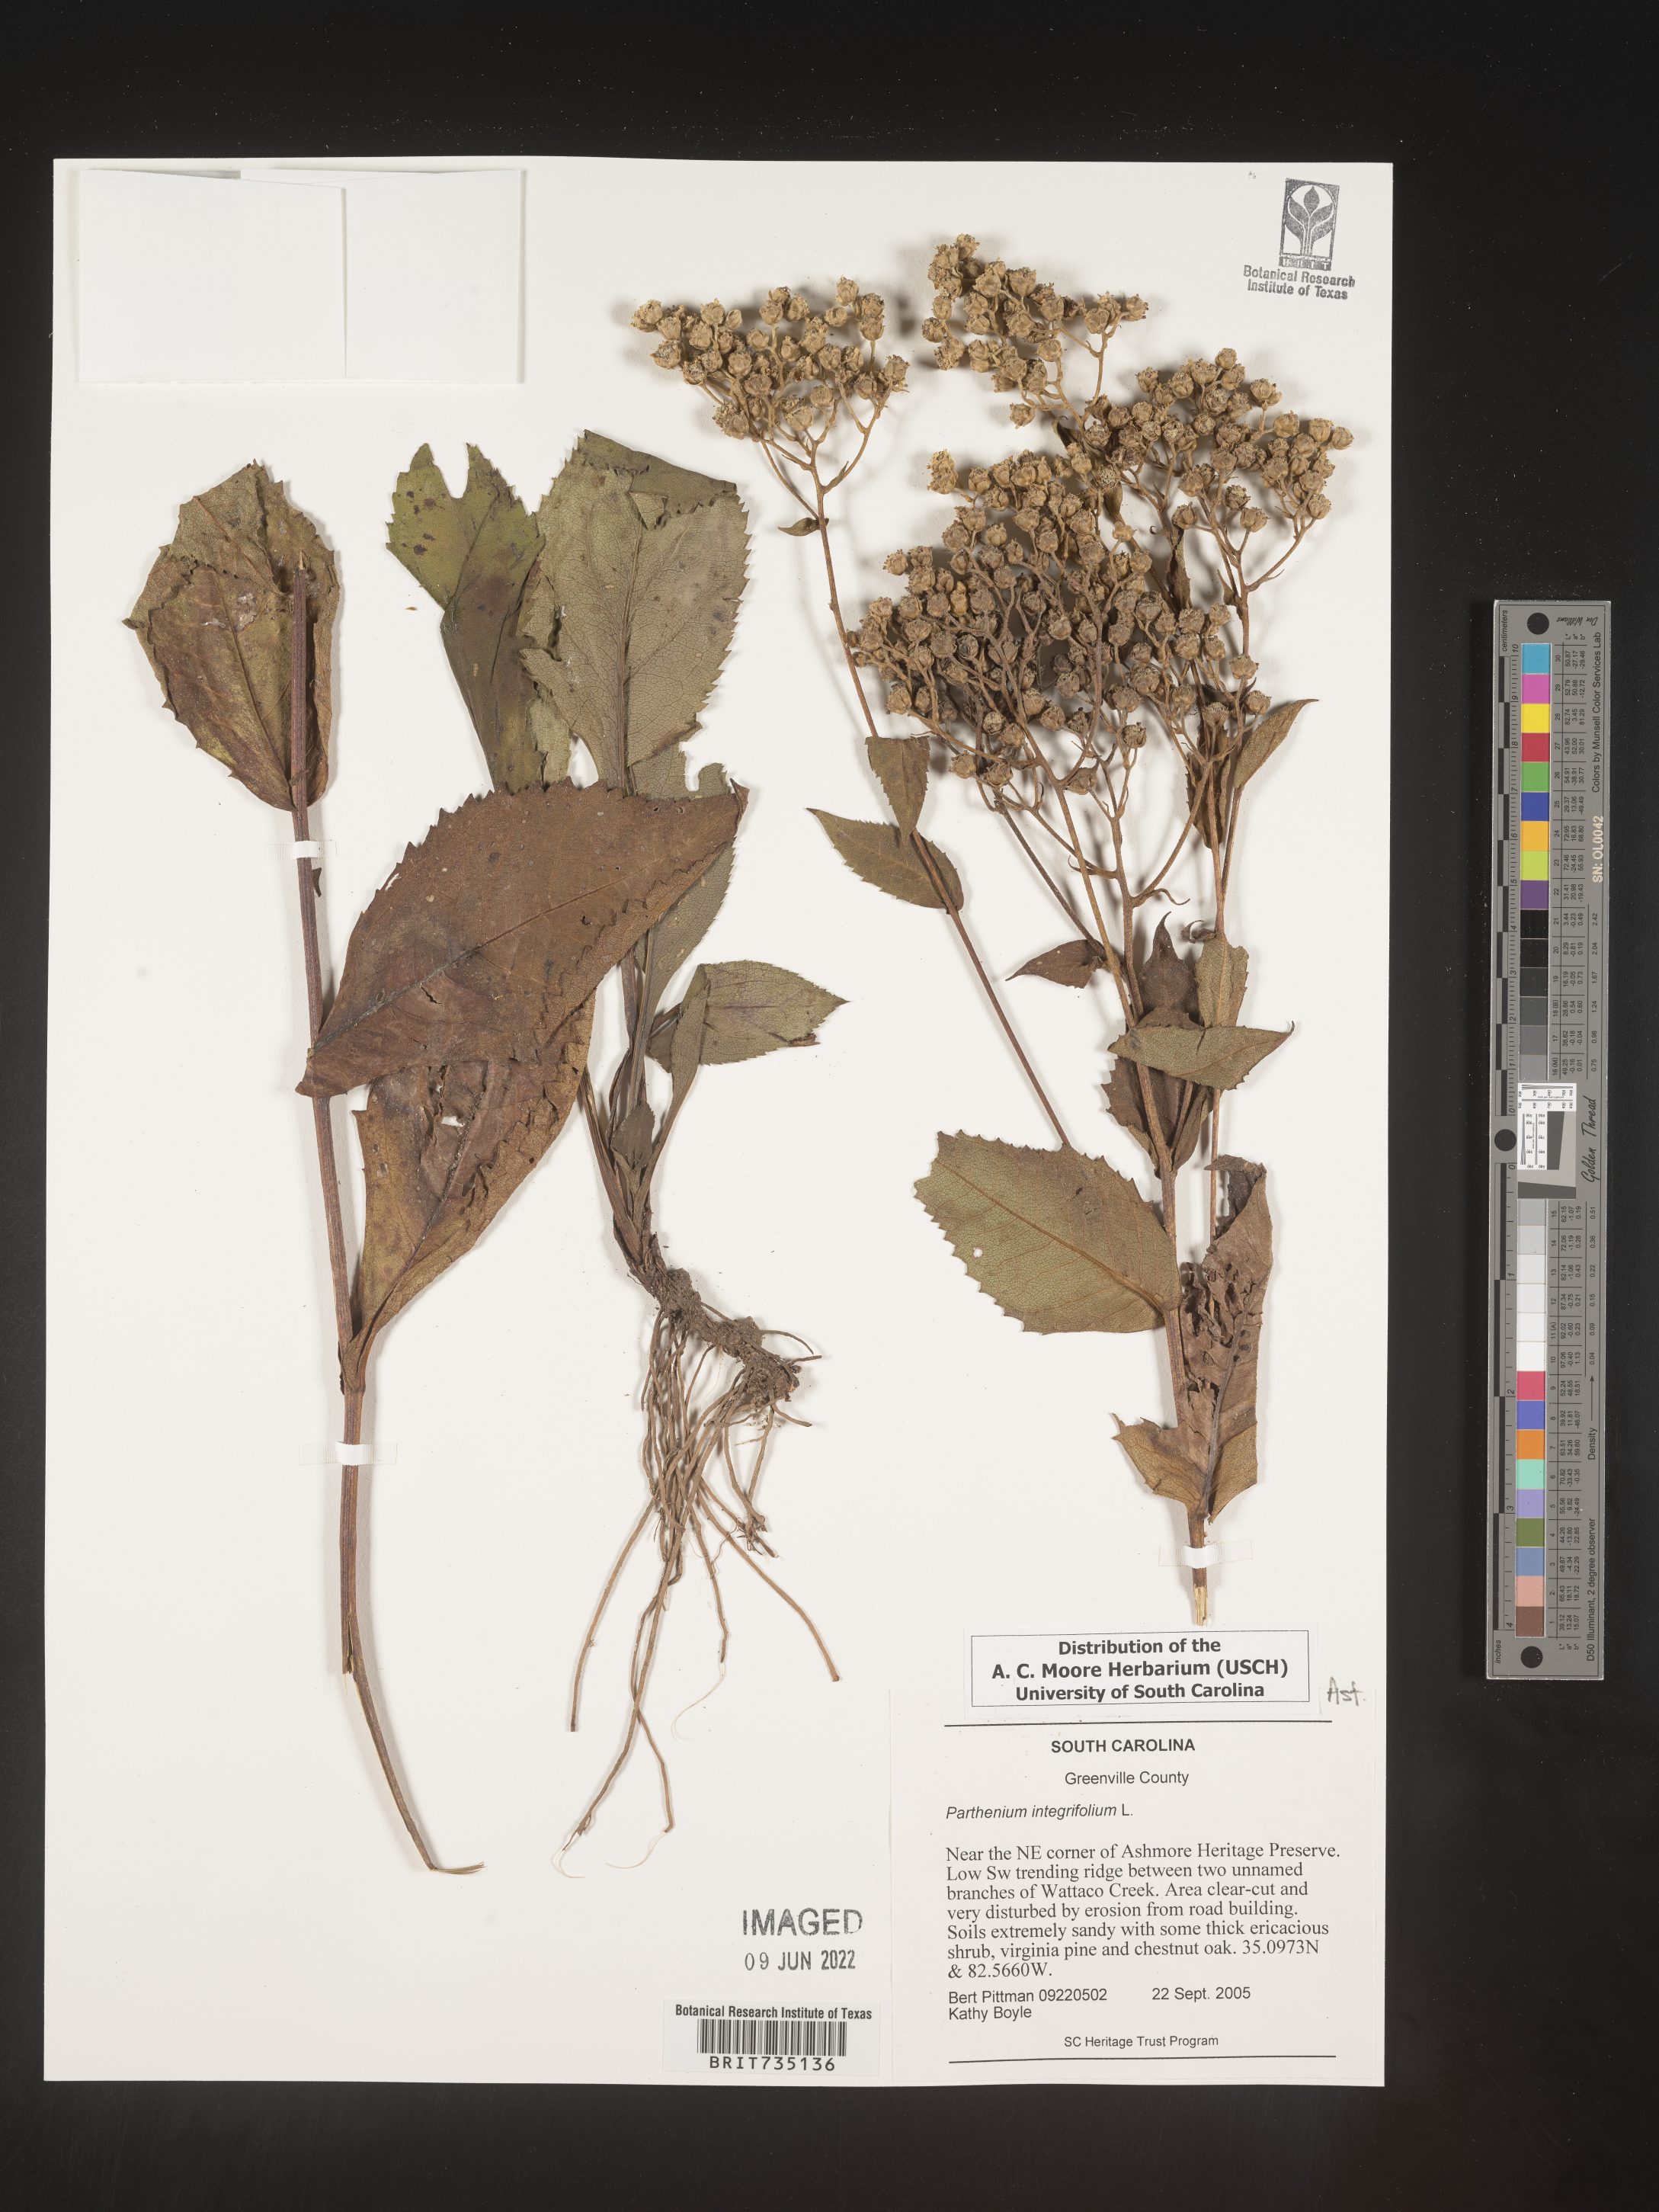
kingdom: Plantae
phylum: Tracheophyta
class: Magnoliopsida
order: Asterales
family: Asteraceae
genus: Parthenium
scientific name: Parthenium integrifolium
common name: American feverfew
